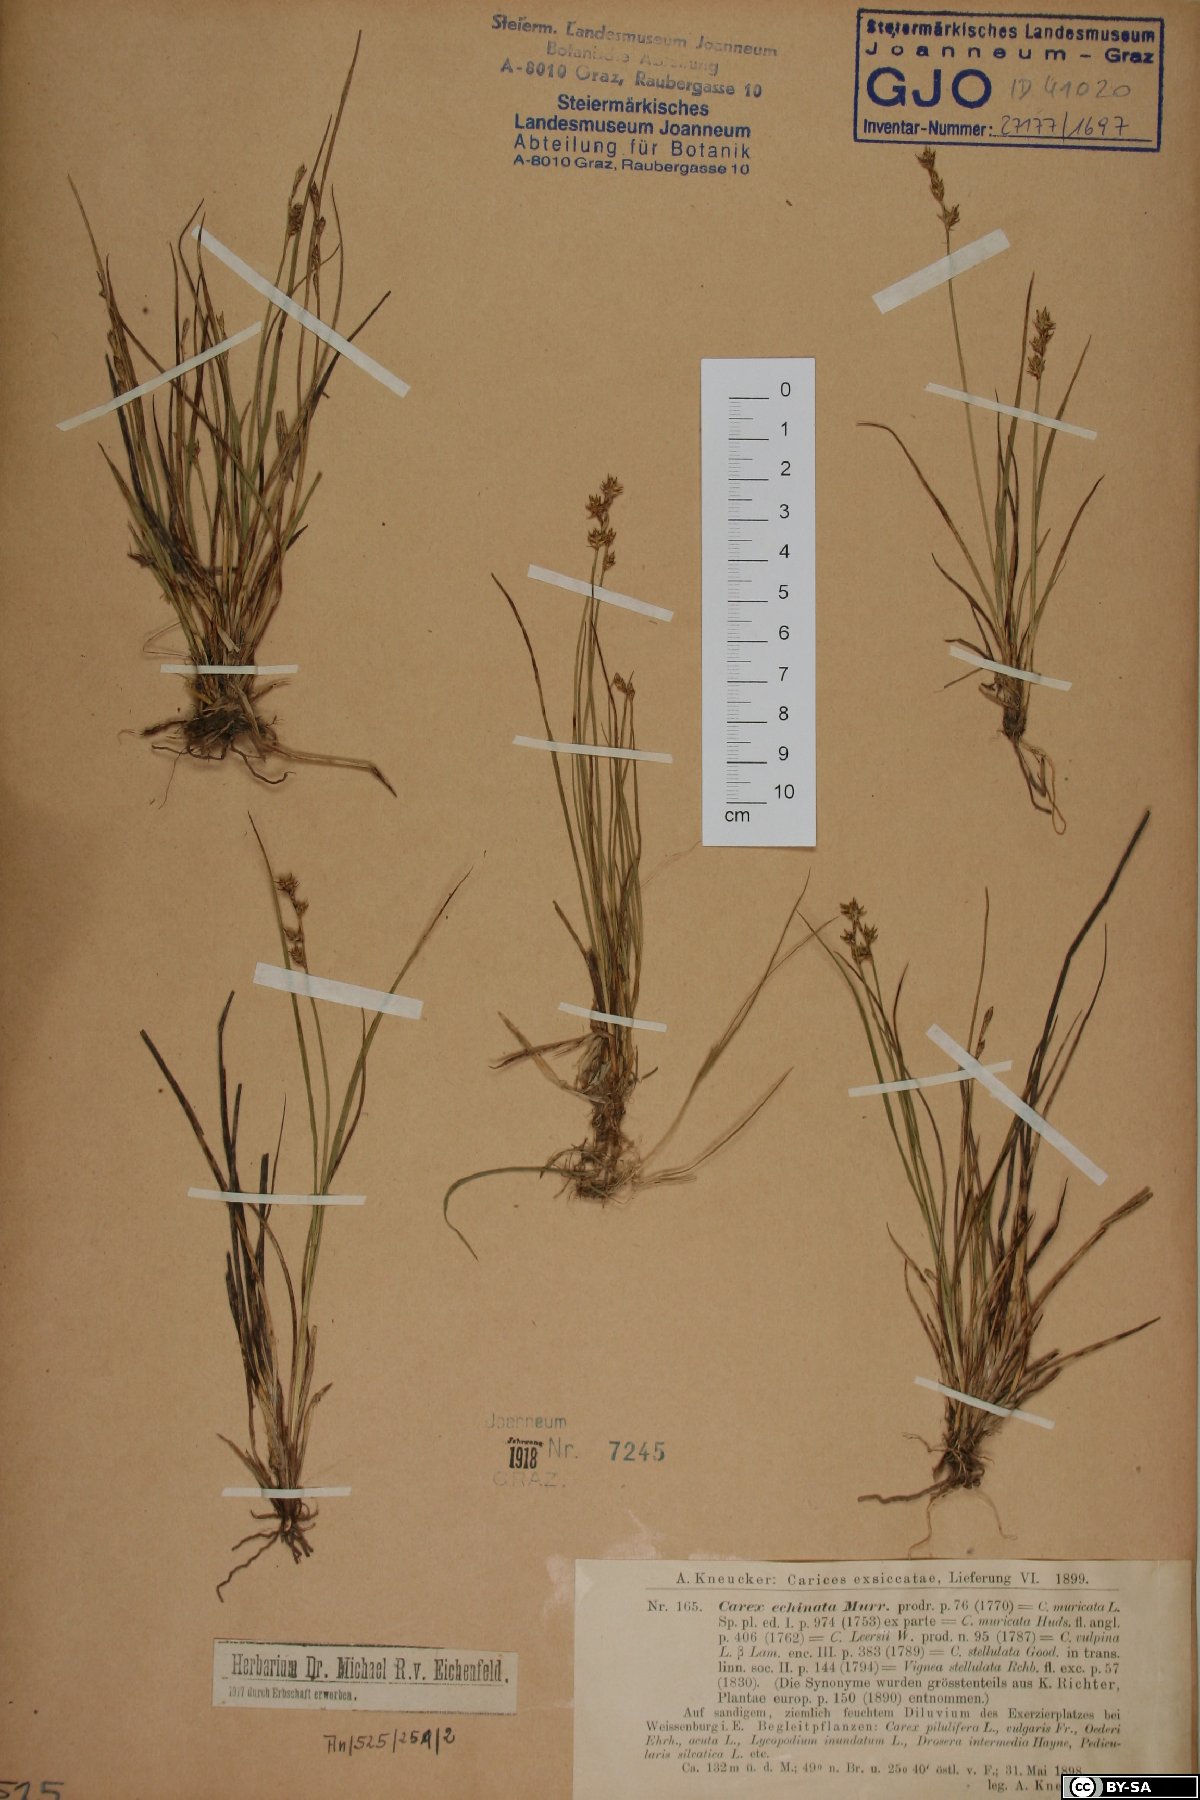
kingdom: Plantae
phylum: Tracheophyta
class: Liliopsida
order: Poales
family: Cyperaceae
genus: Carex
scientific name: Carex echinata
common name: Star sedge
